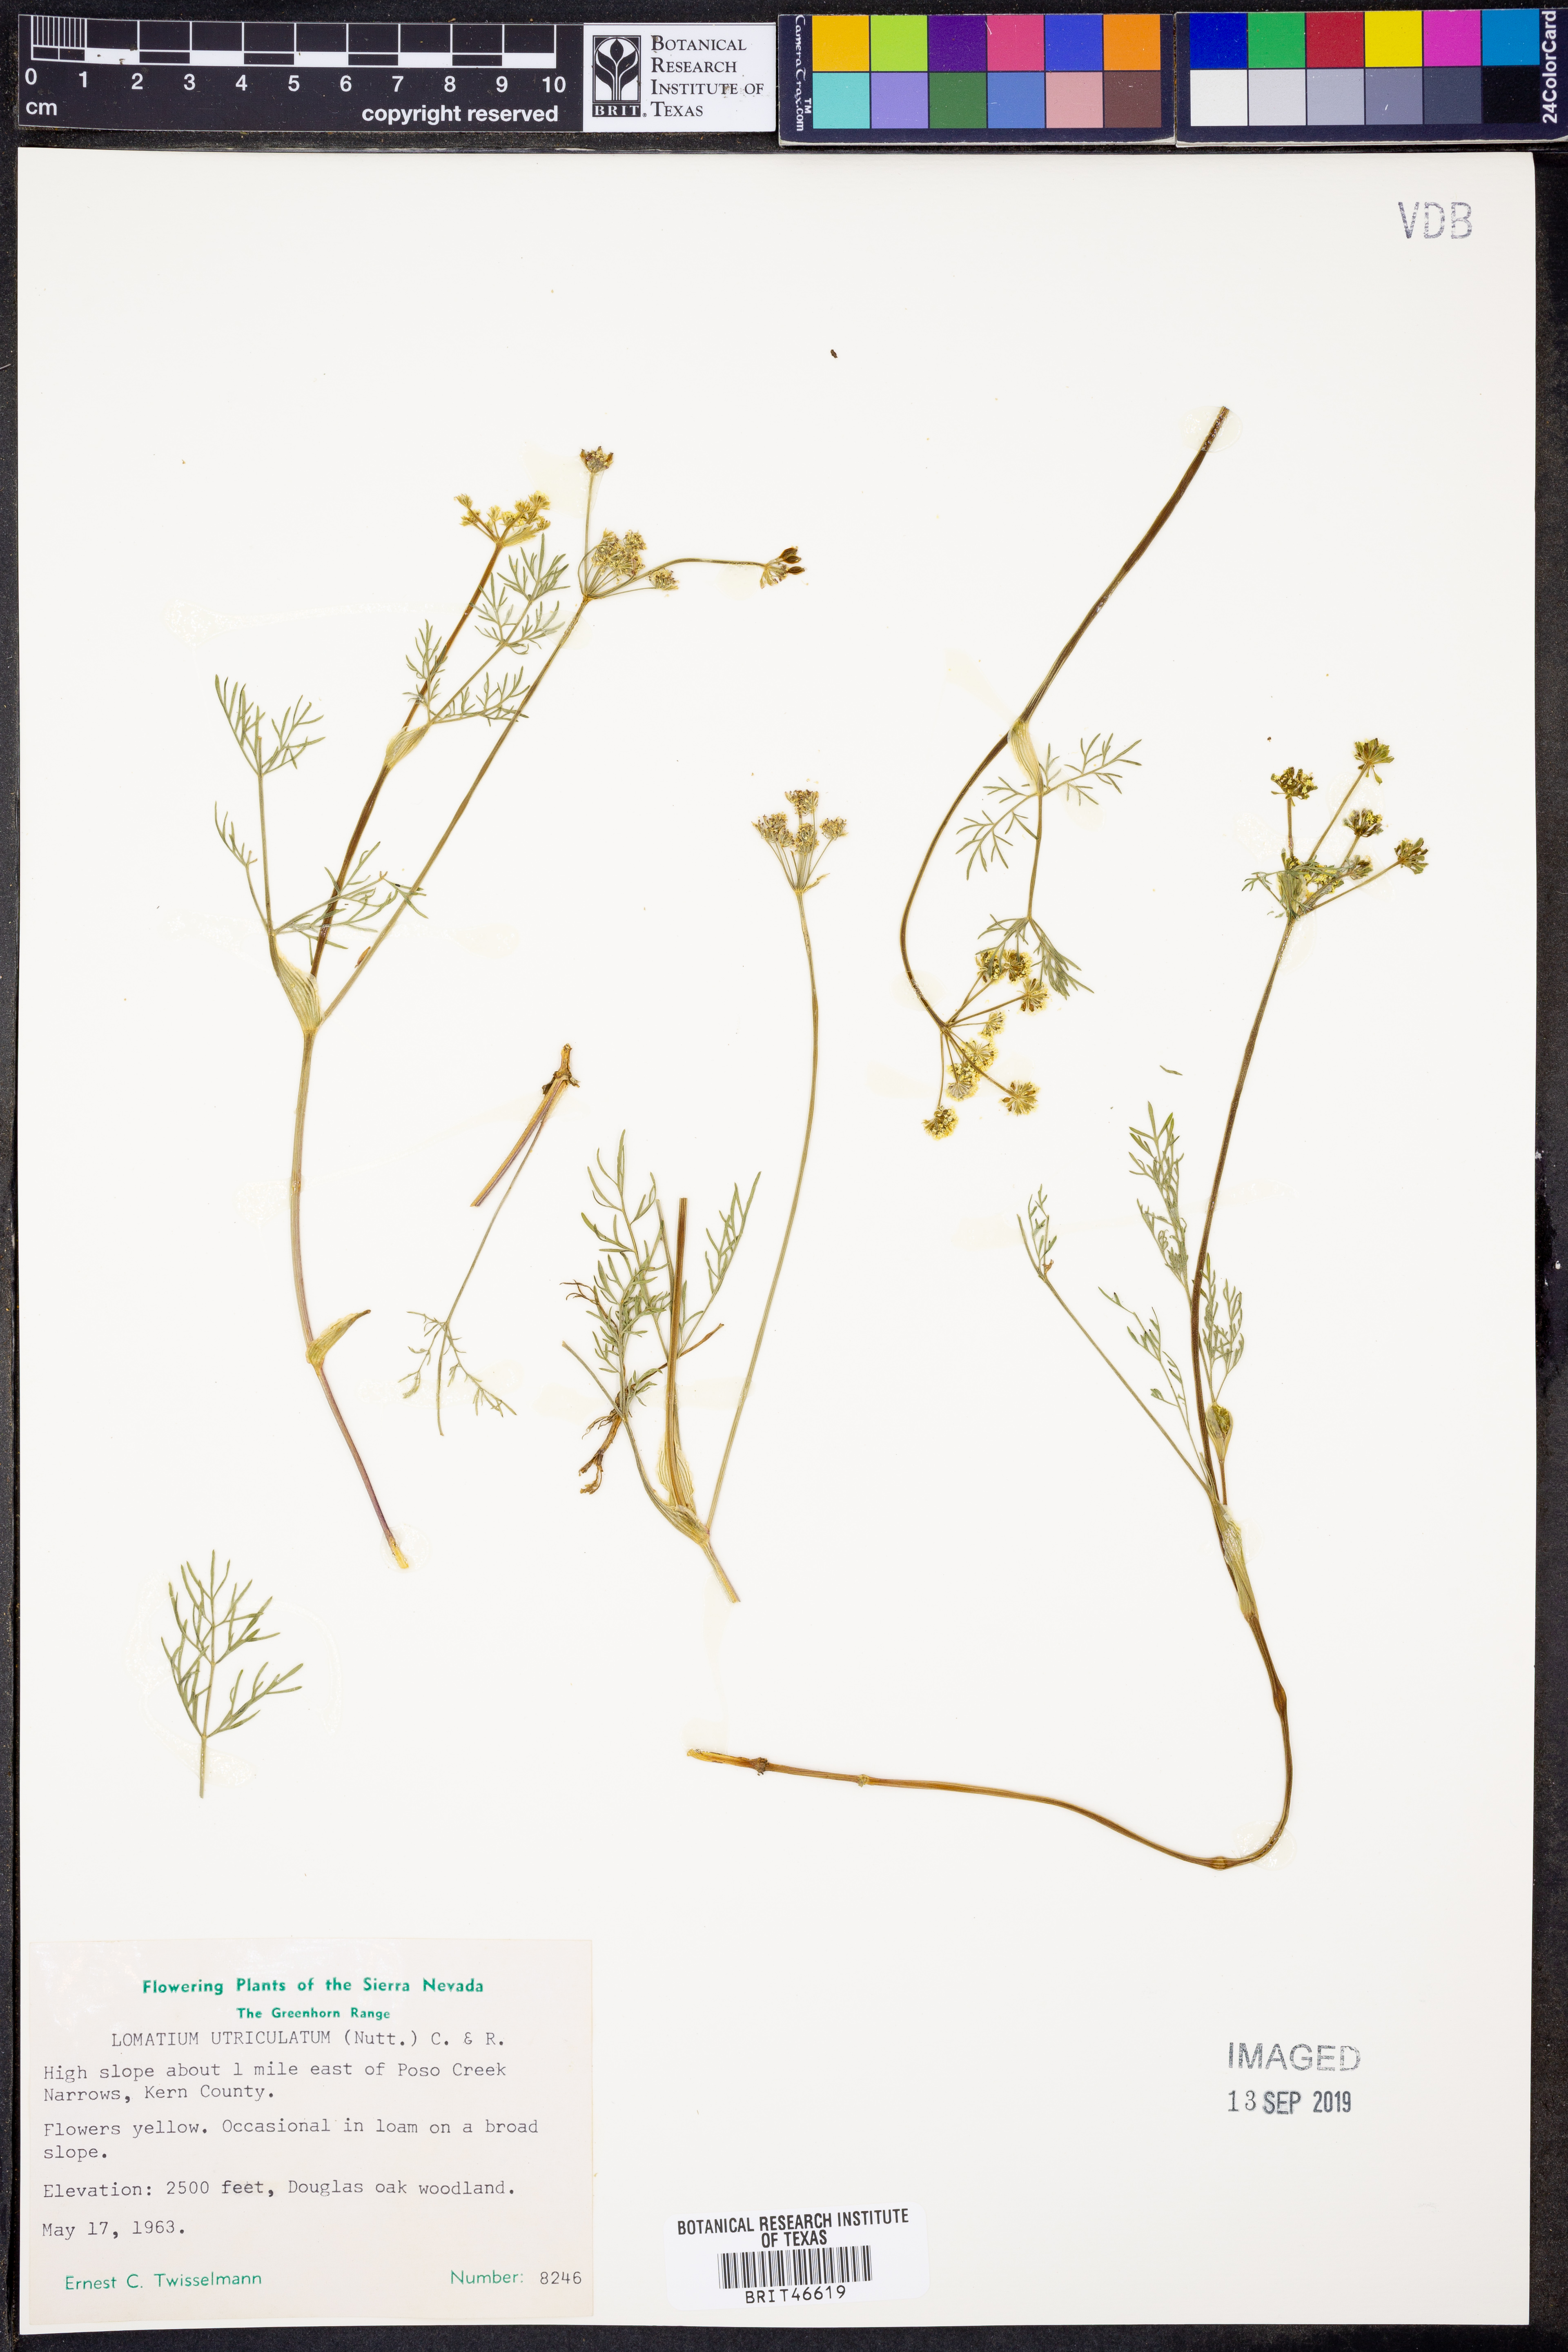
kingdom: Plantae
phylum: Tracheophyta
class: Magnoliopsida
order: Apiales
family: Apiaceae
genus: Lomatium
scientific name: Lomatium utriculatum
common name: Fine-leaf desert-parsley
